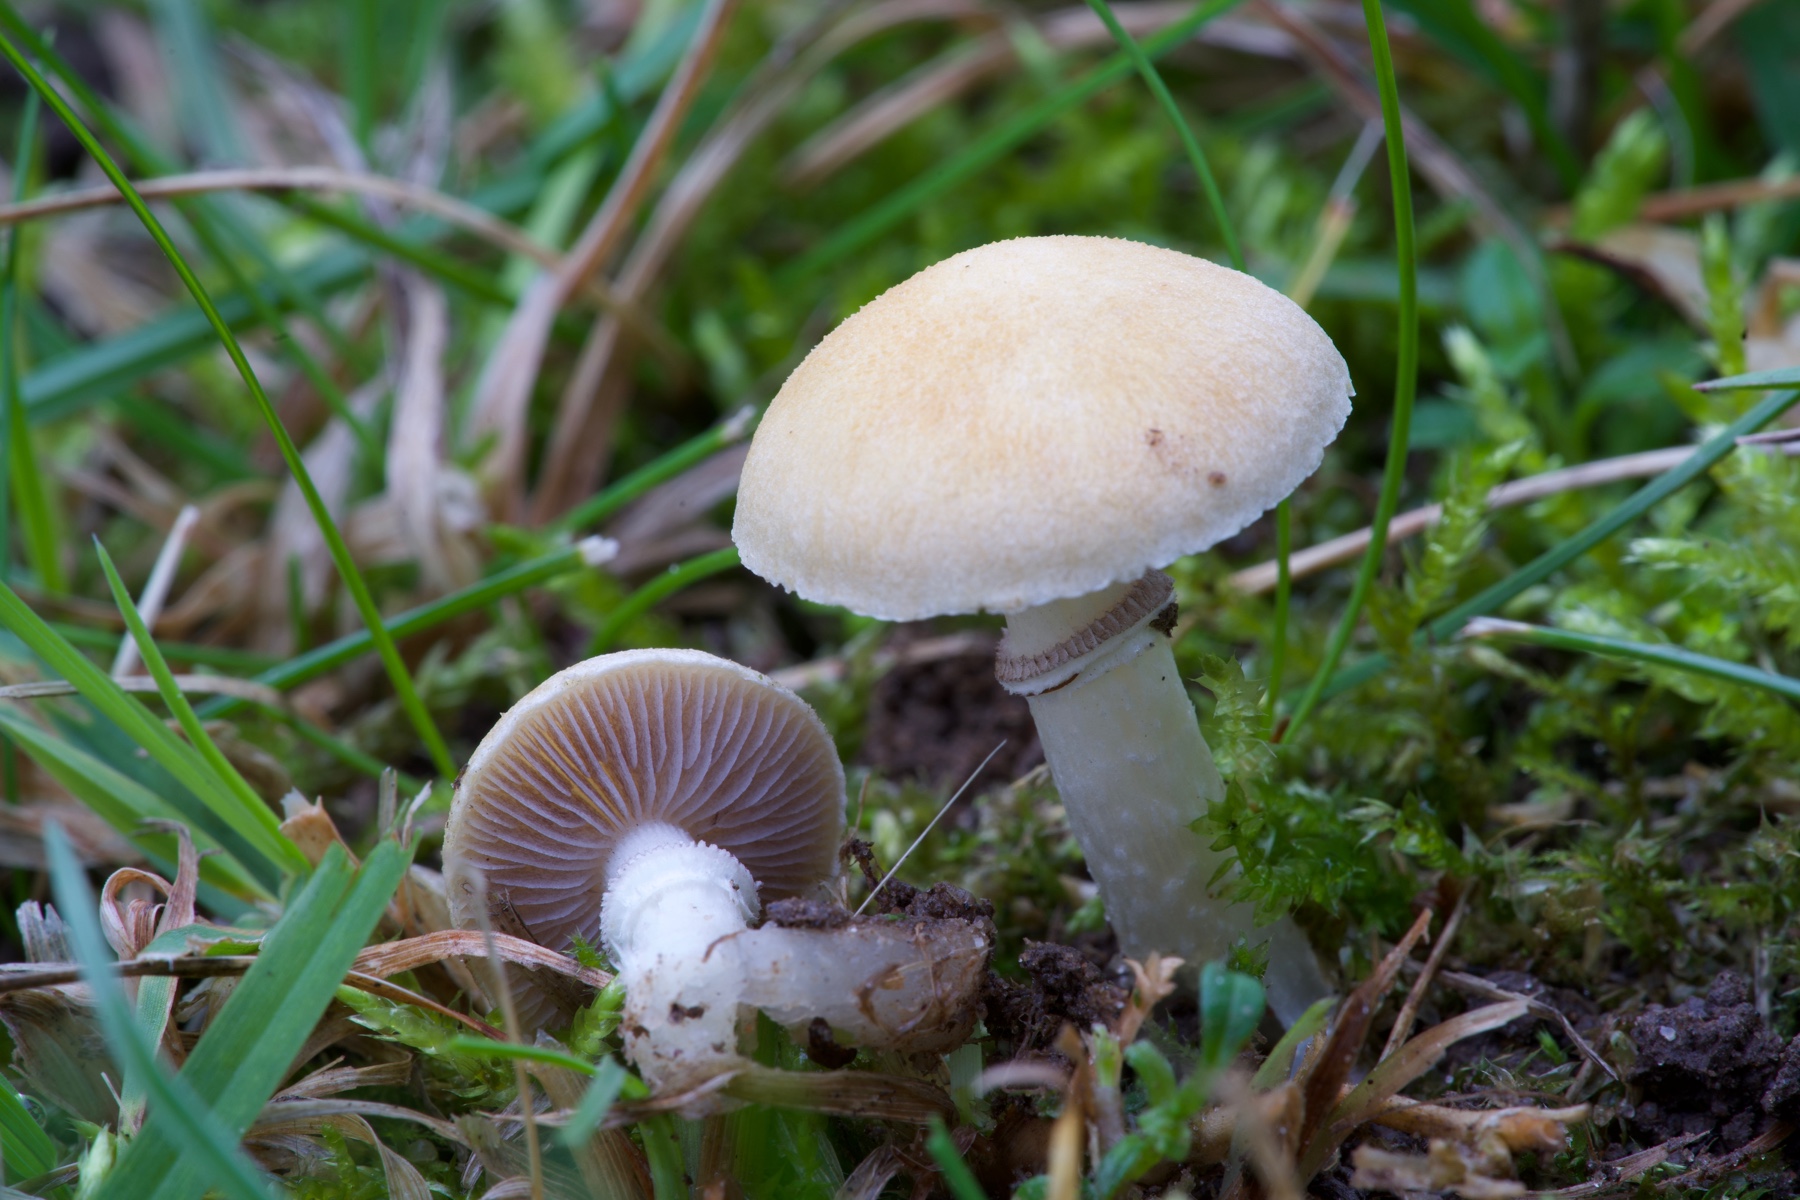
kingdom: Fungi
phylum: Basidiomycota
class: Agaricomycetes
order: Agaricales
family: Hymenogastraceae
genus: Psilocybe
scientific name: Psilocybe coronilla
